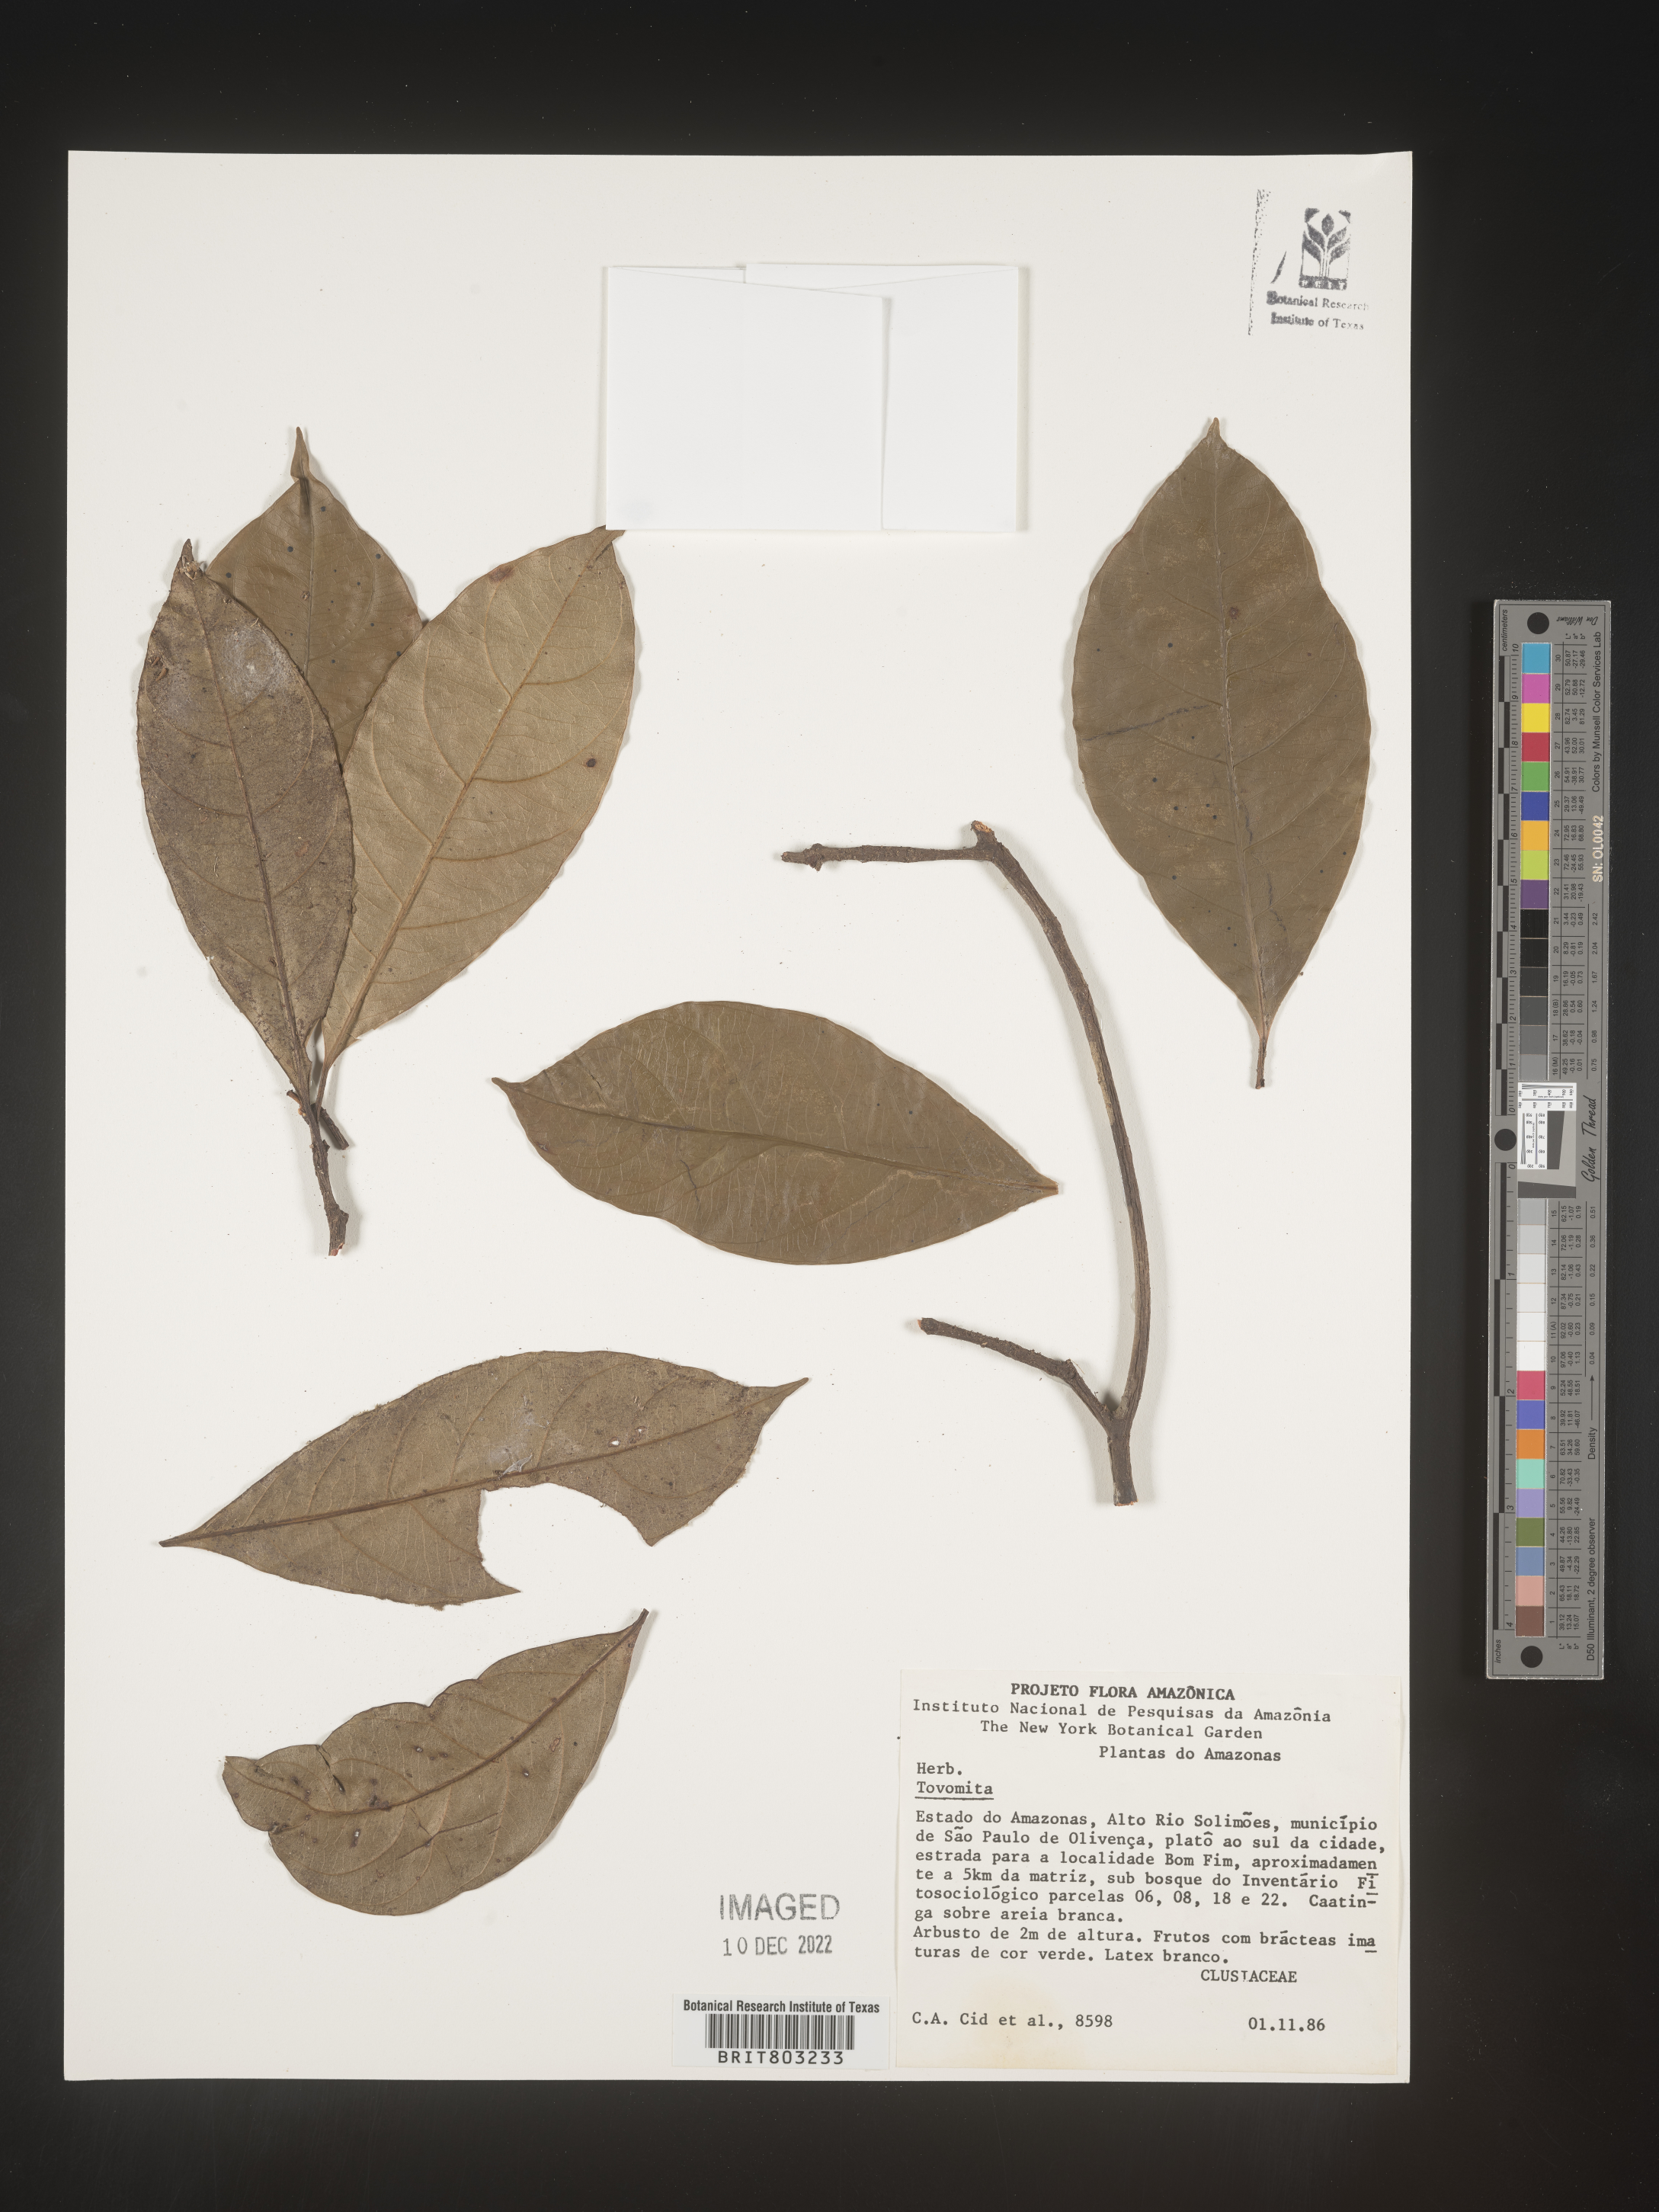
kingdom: Plantae
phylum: Tracheophyta
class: Magnoliopsida
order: Malpighiales
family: Clusiaceae
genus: Tovomita
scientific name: Tovomita
